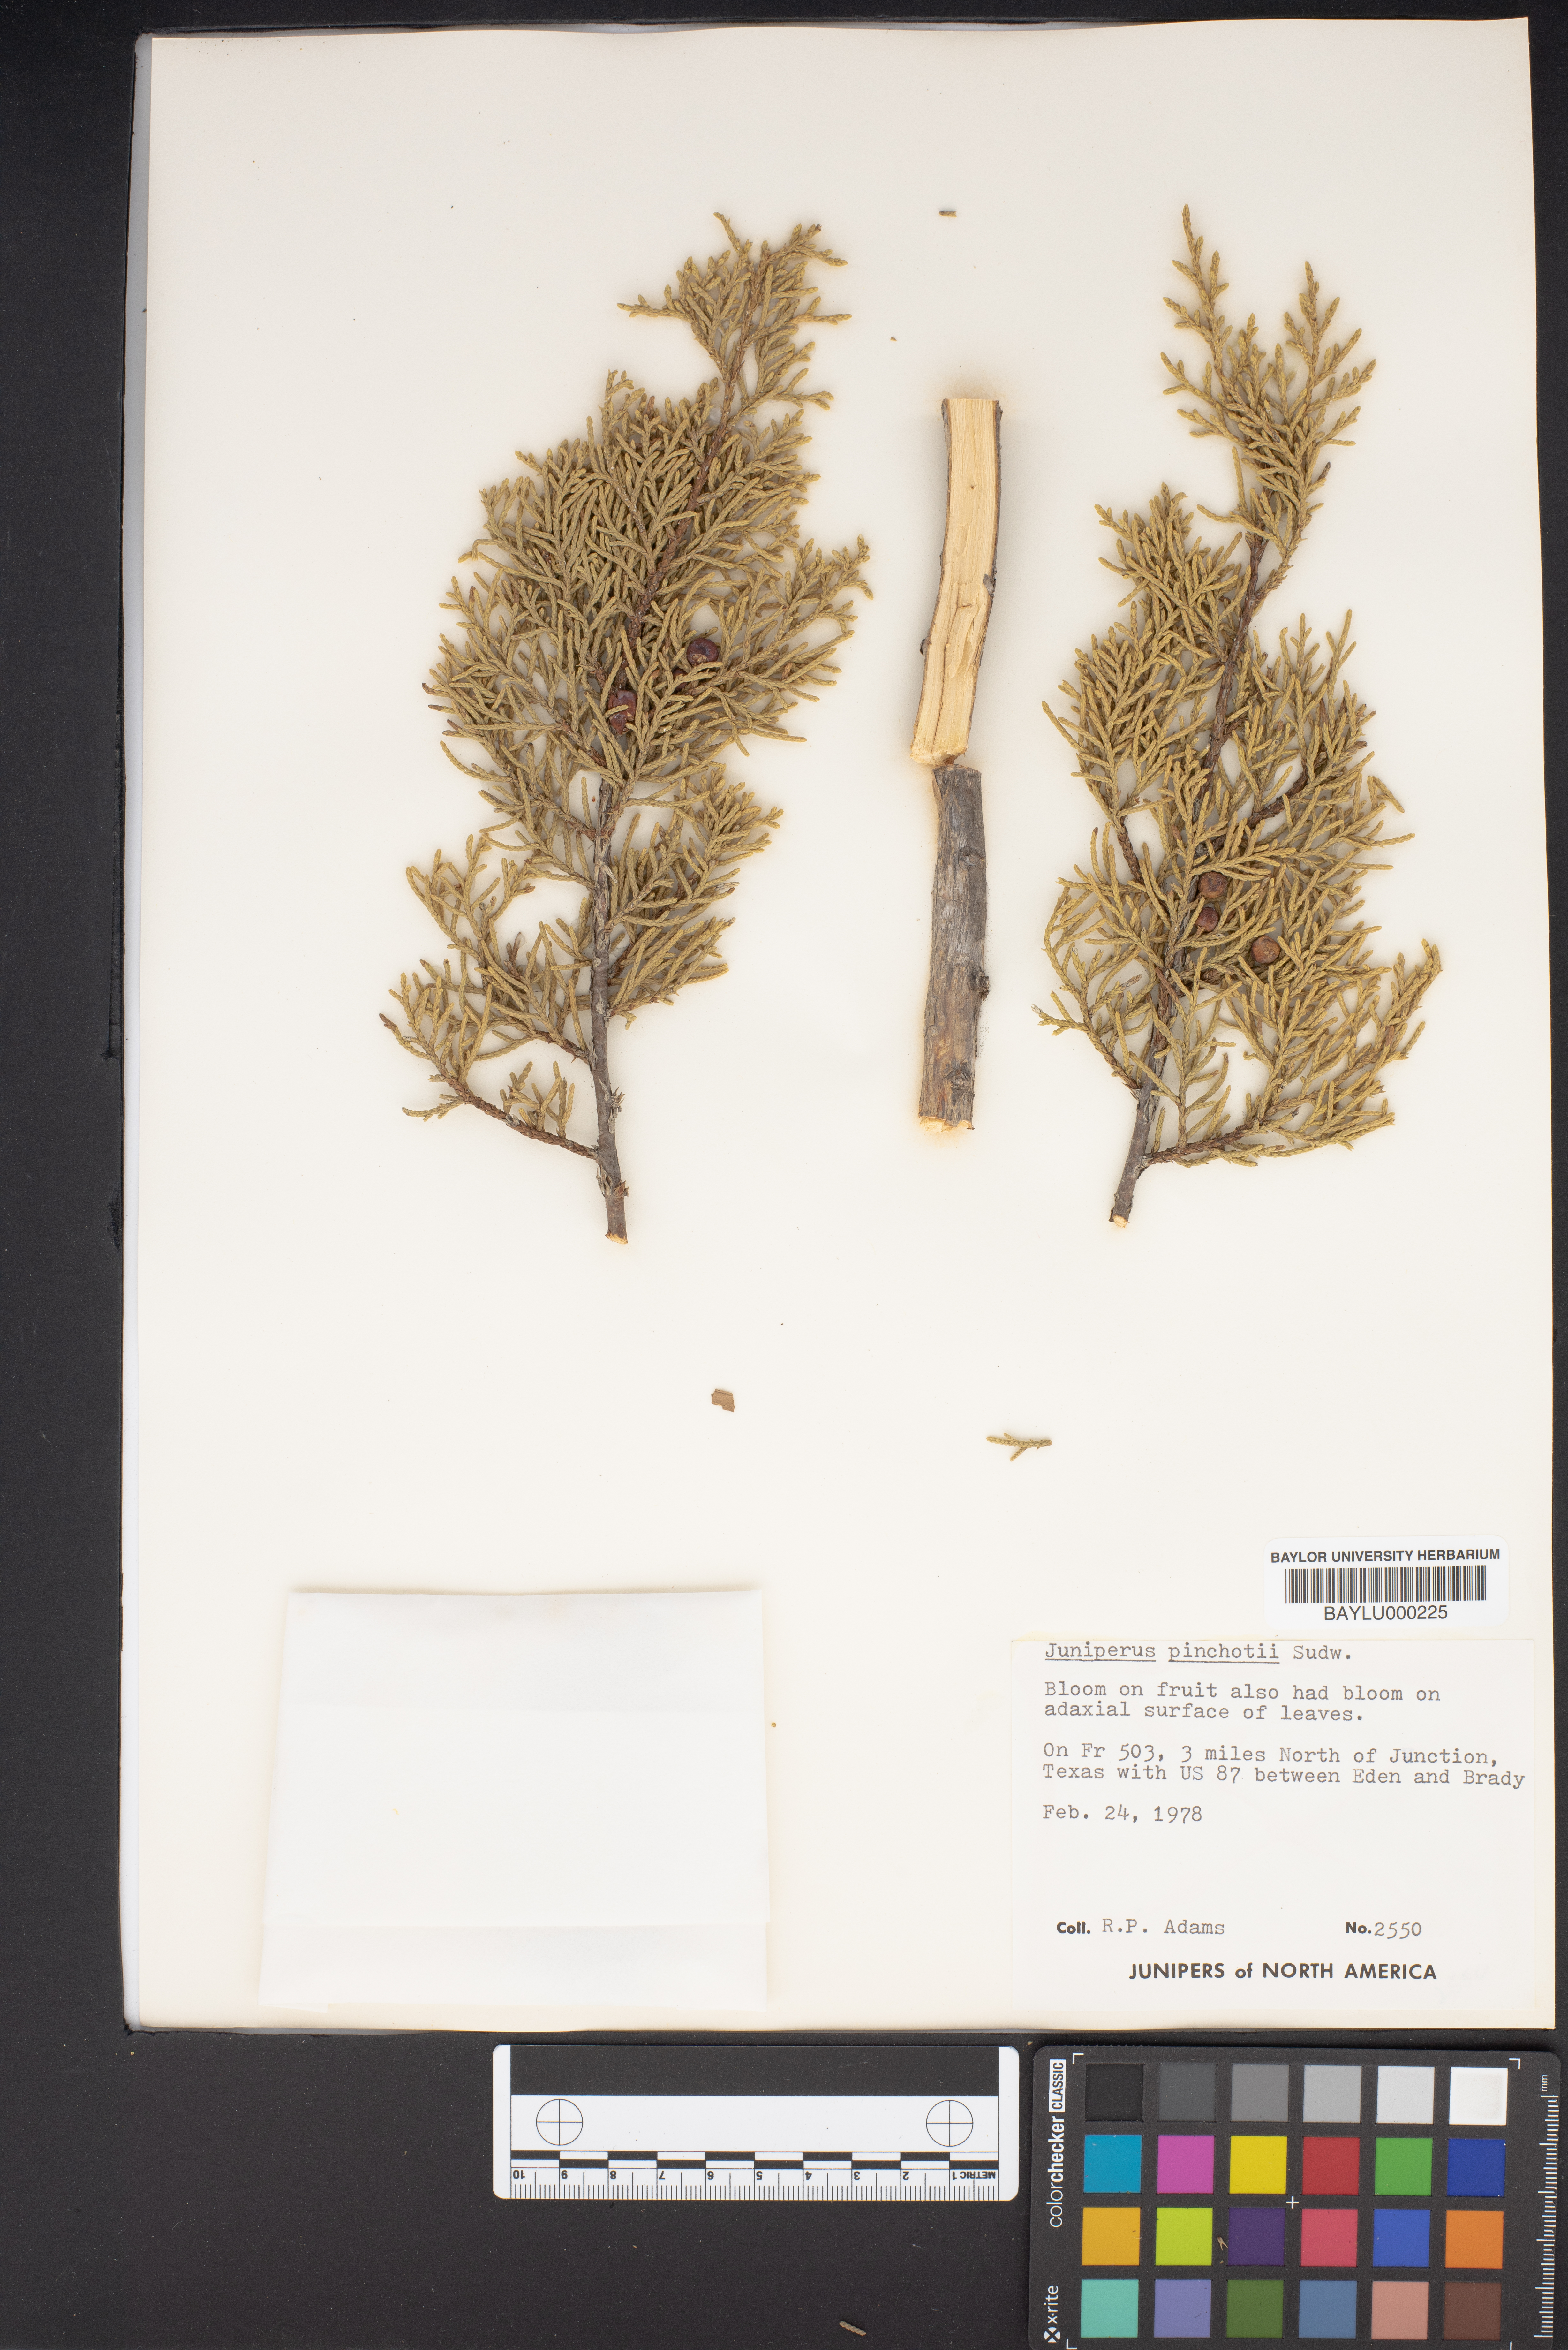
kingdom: Plantae
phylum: Tracheophyta
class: Pinopsida
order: Pinales
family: Cupressaceae
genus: Juniperus
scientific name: Juniperus pinchotii
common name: Pinchot juniper
